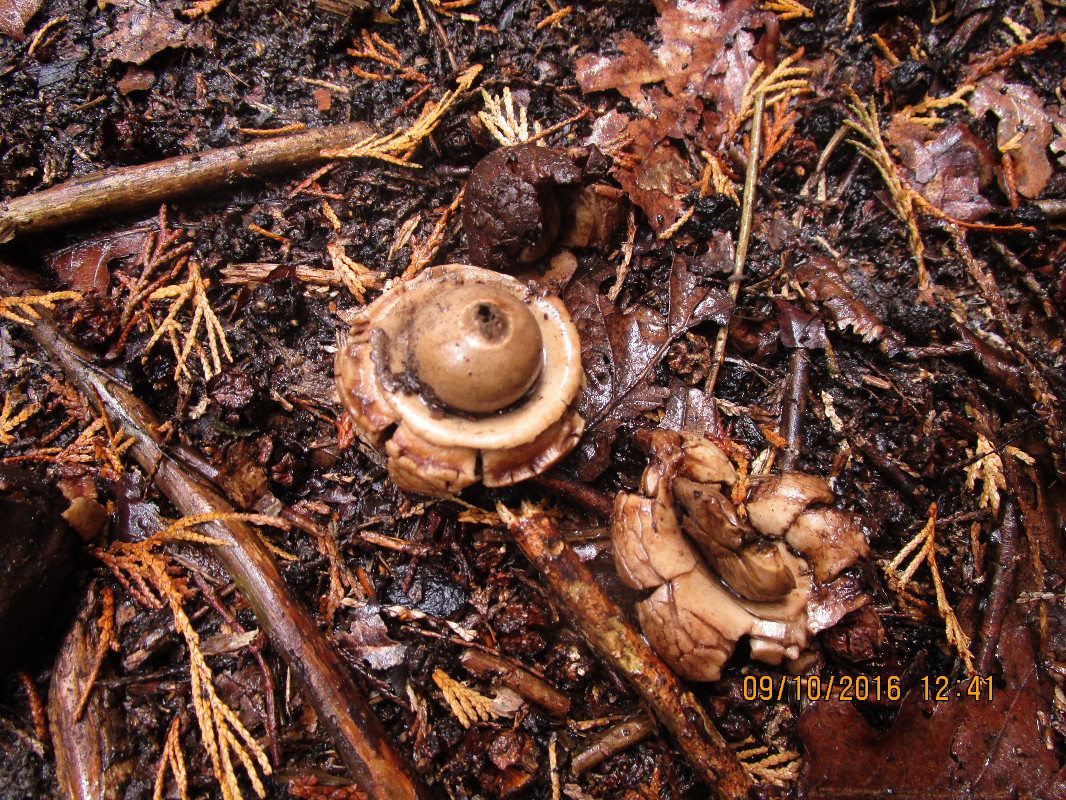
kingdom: Fungi
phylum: Basidiomycota
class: Agaricomycetes
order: Geastrales
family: Geastraceae
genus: Geastrum
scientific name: Geastrum michelianum
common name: kødet stjernebold
